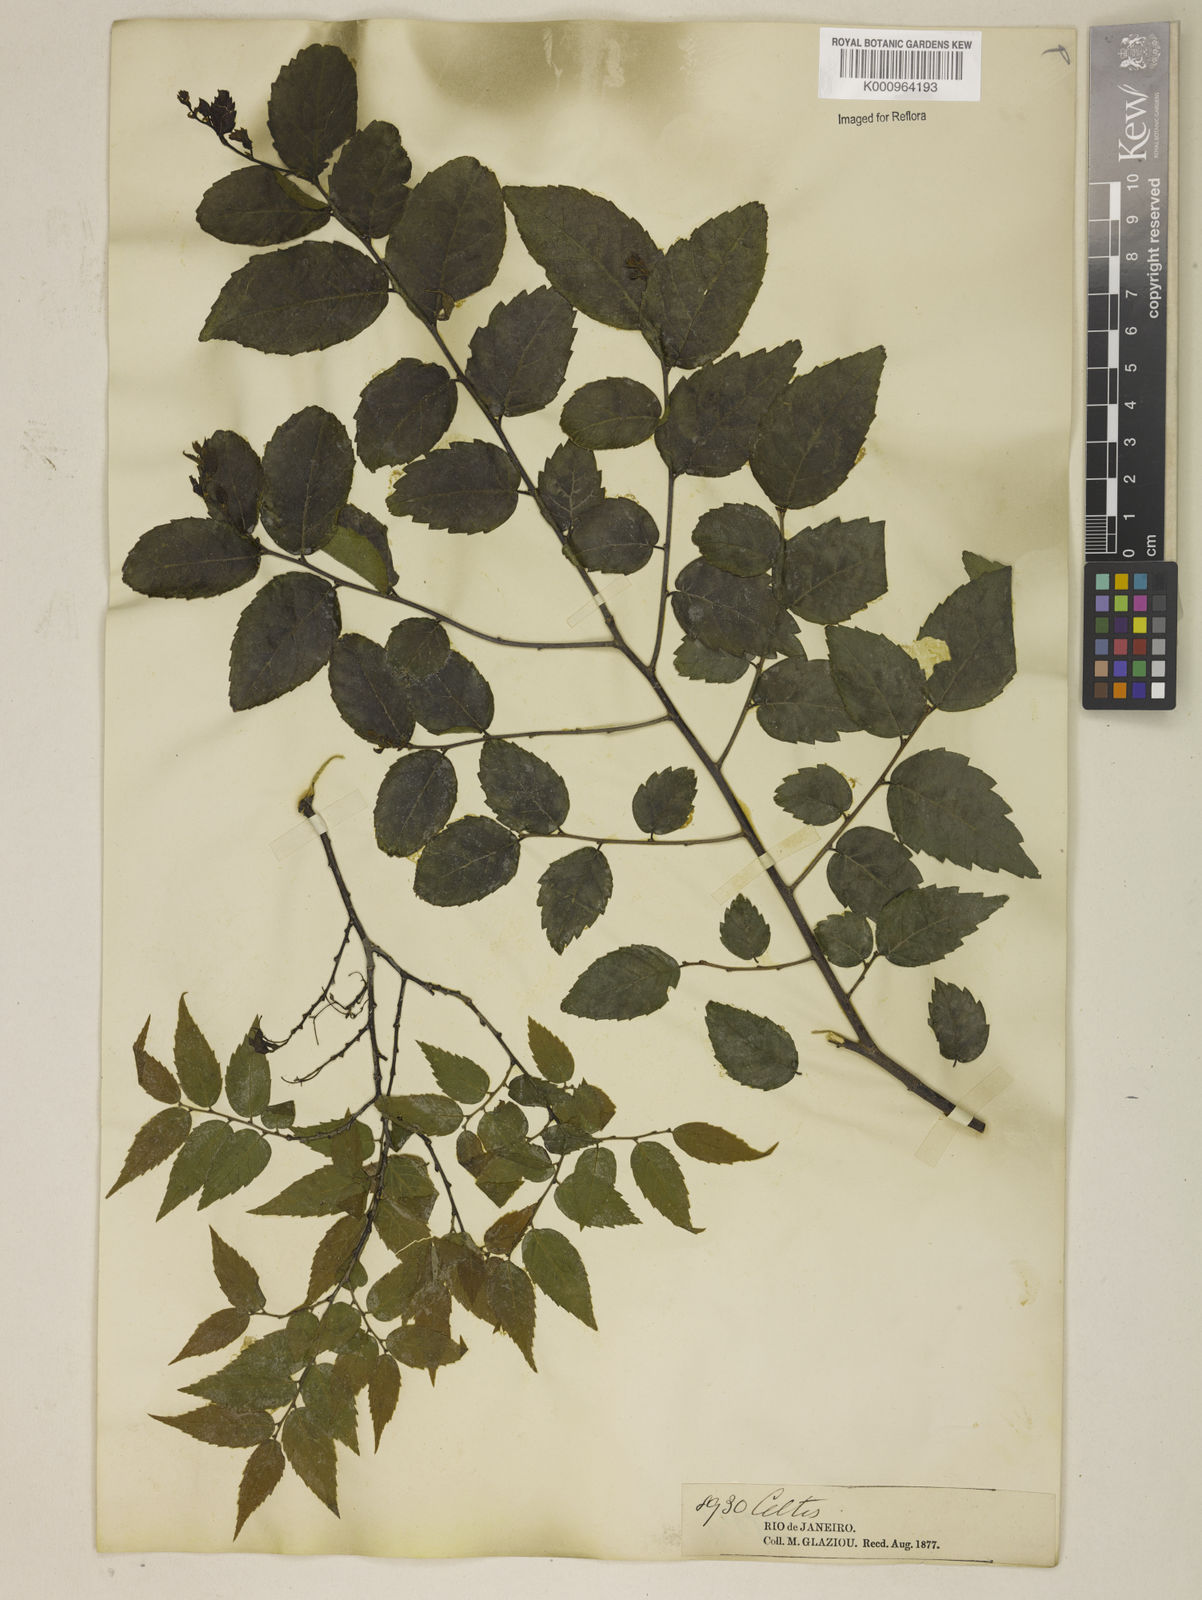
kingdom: Plantae
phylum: Tracheophyta
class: Magnoliopsida
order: Rosales
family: Ulmaceae
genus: Phyllostylon
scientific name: Phyllostylon brasiliensis
